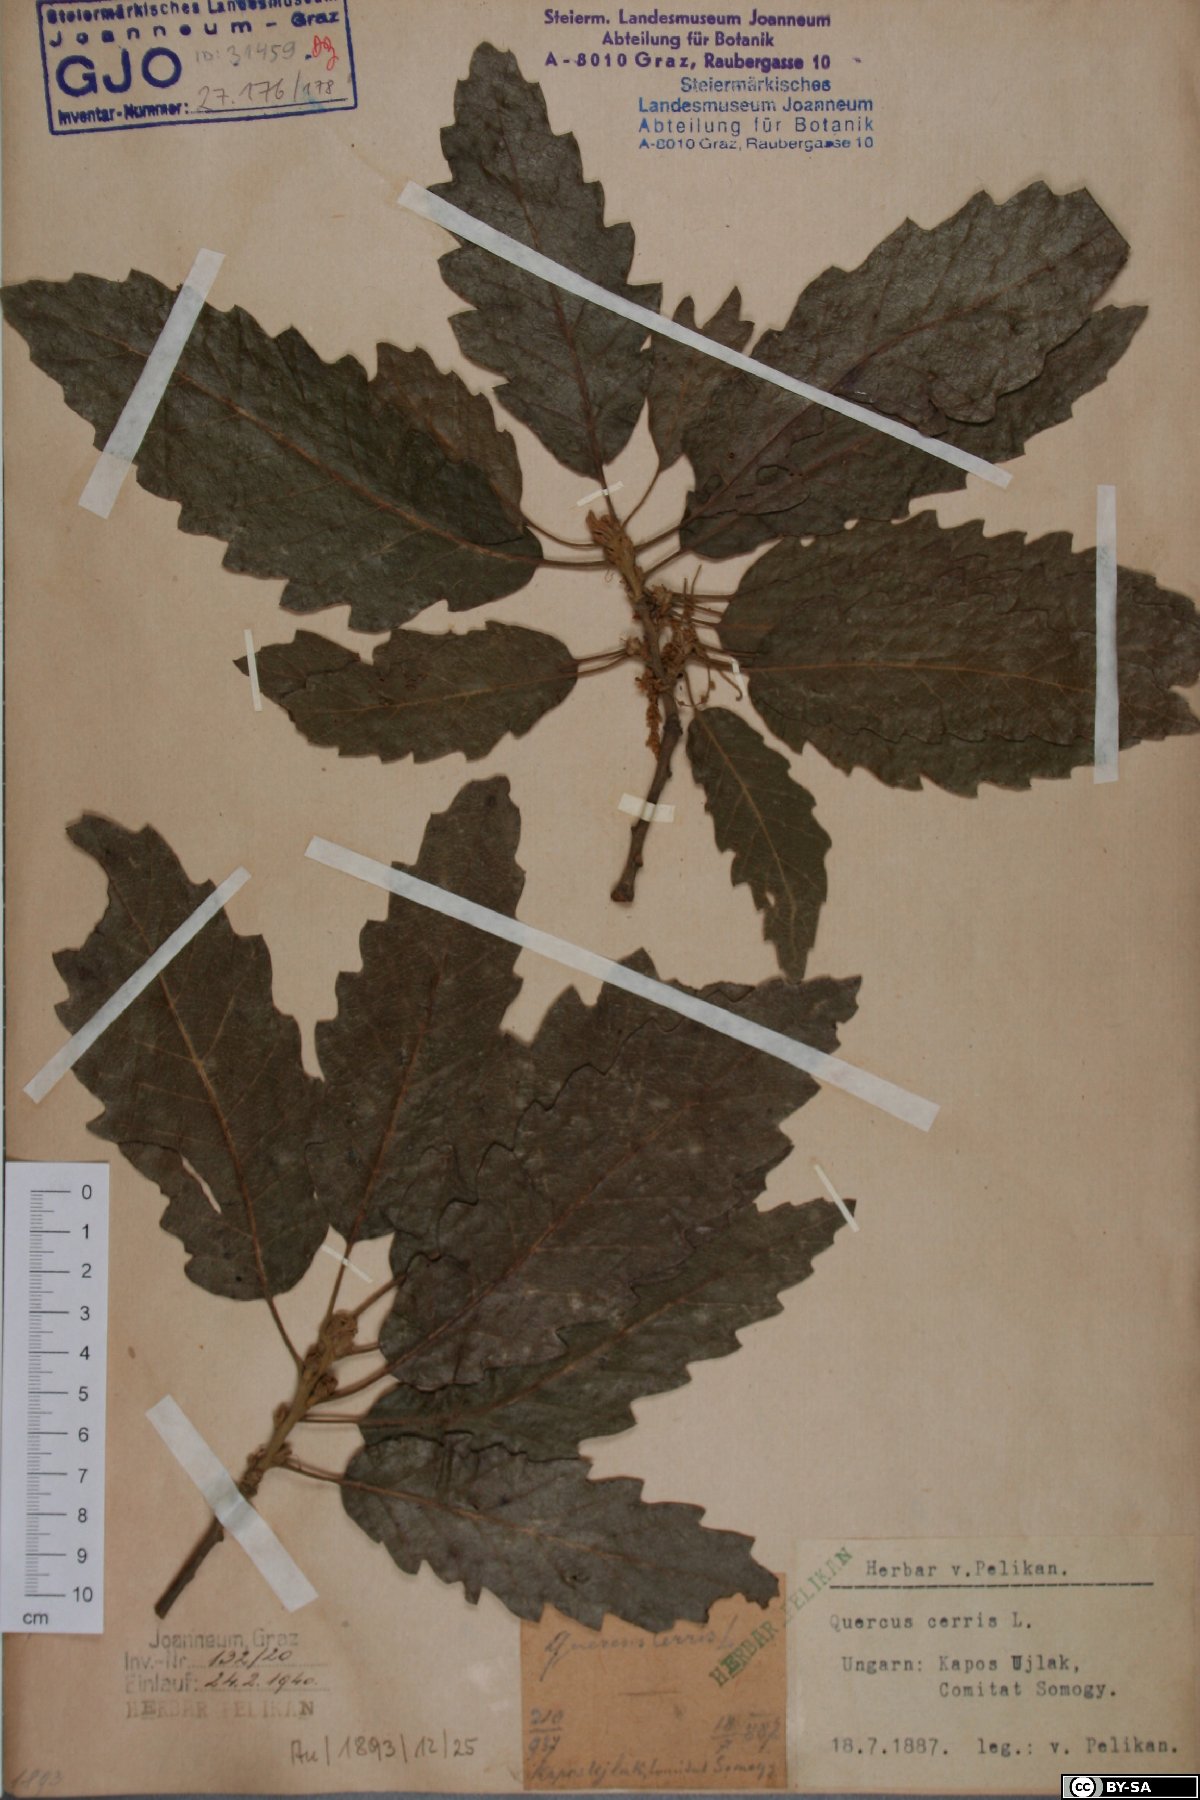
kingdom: Plantae
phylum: Tracheophyta
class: Magnoliopsida
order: Fagales
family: Fagaceae
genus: Quercus
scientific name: Quercus cerris
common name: Turkey oak
